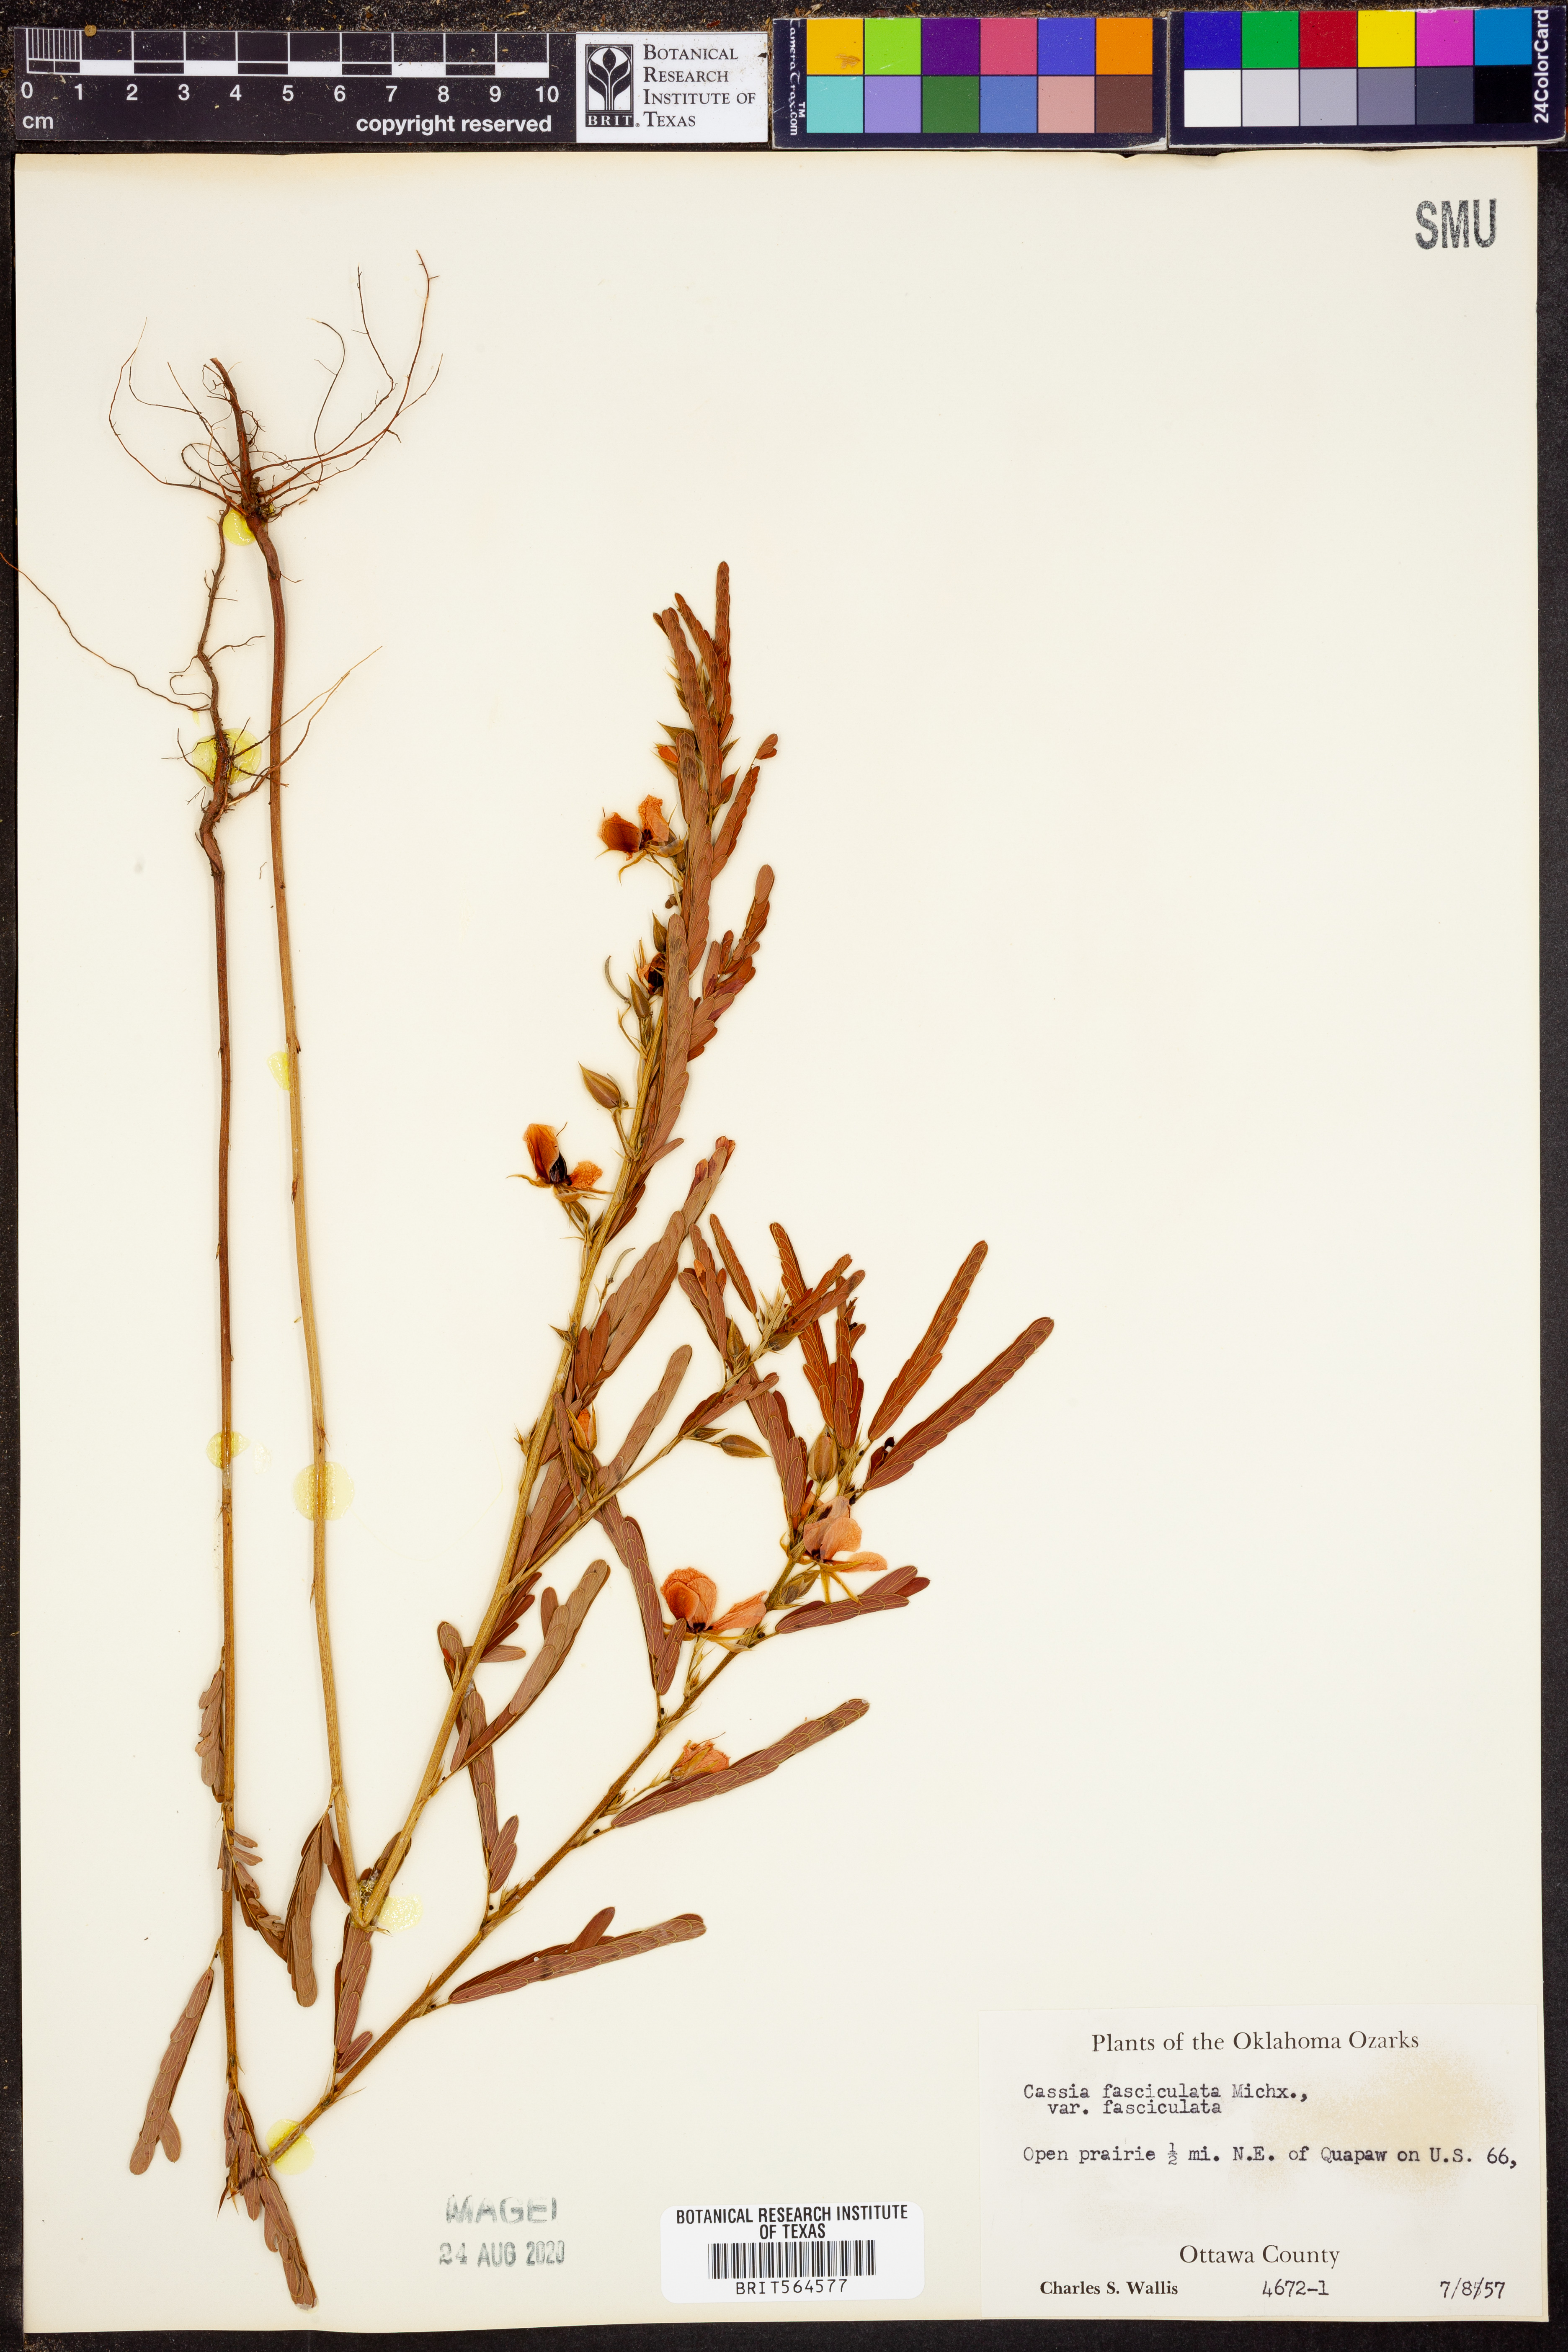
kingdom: Plantae
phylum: Tracheophyta
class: Magnoliopsida
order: Fabales
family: Fabaceae
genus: Chamaecrista
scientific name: Chamaecrista fasciculata
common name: Golden cassia
